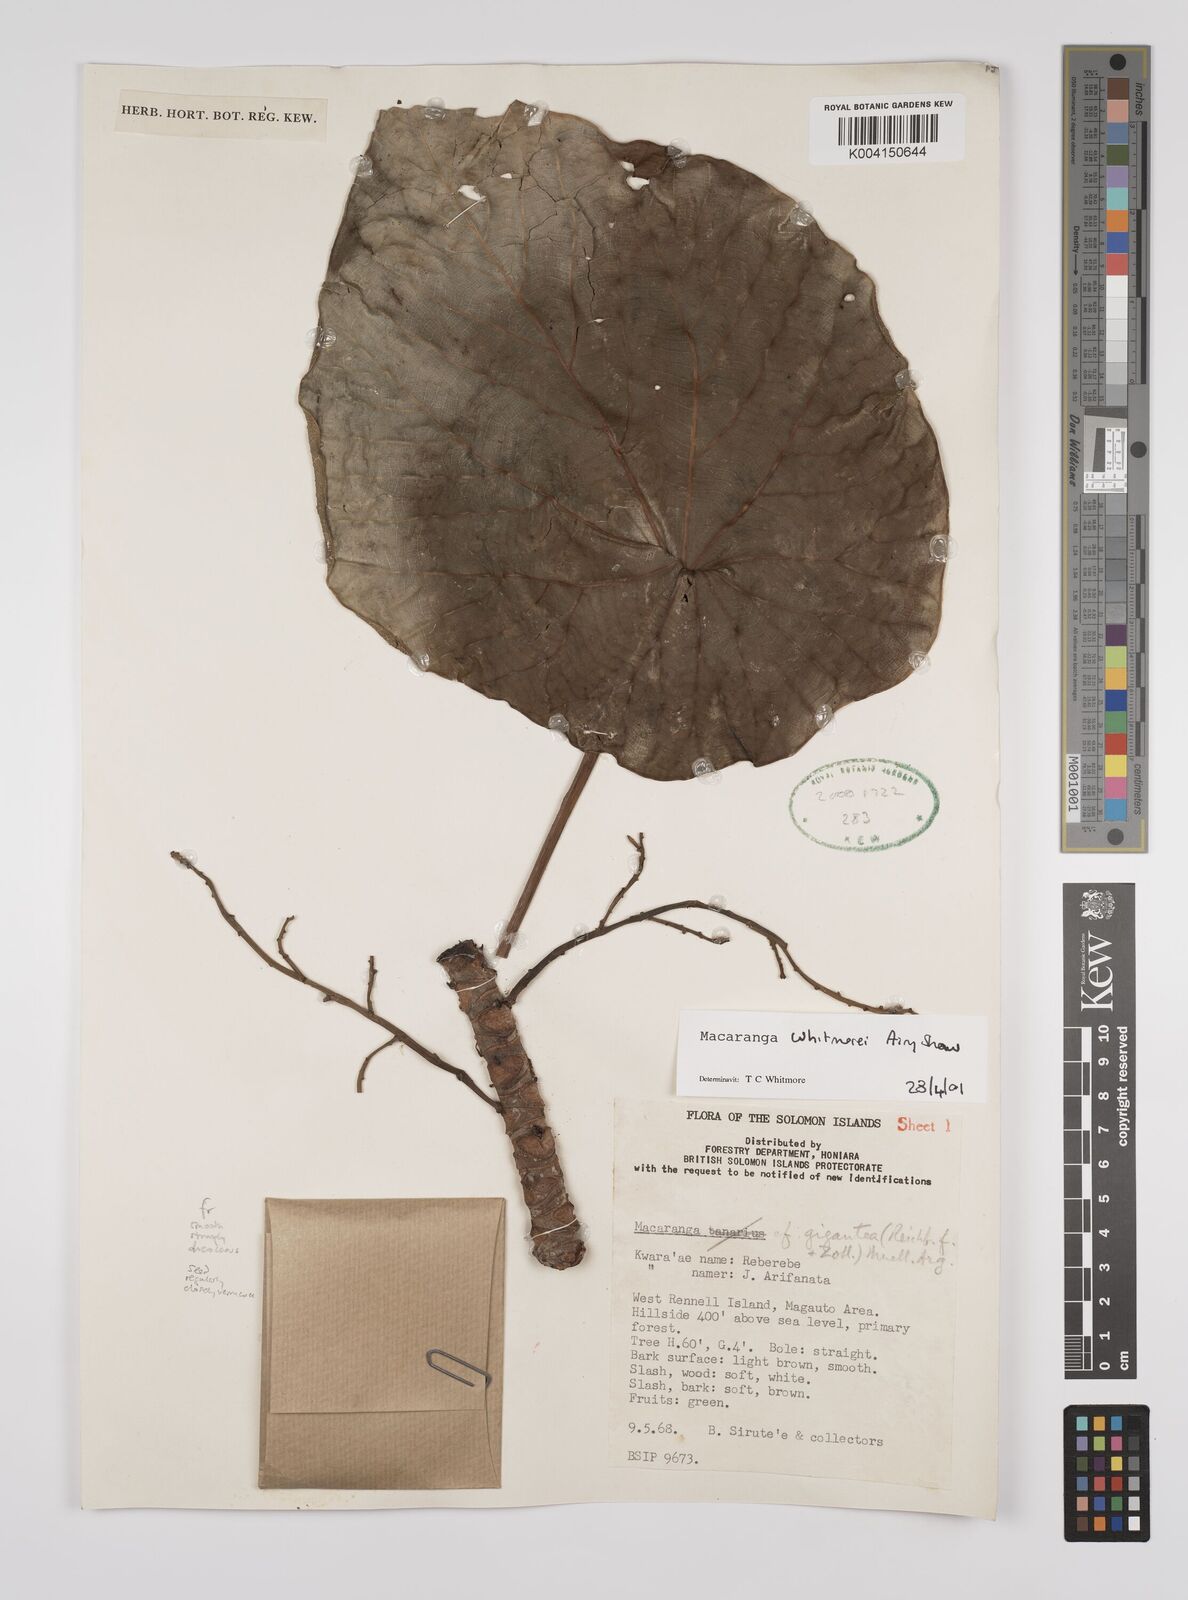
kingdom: Plantae
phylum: Tracheophyta
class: Magnoliopsida
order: Malpighiales
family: Euphorbiaceae
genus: Macaranga
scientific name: Macaranga whitmorei
